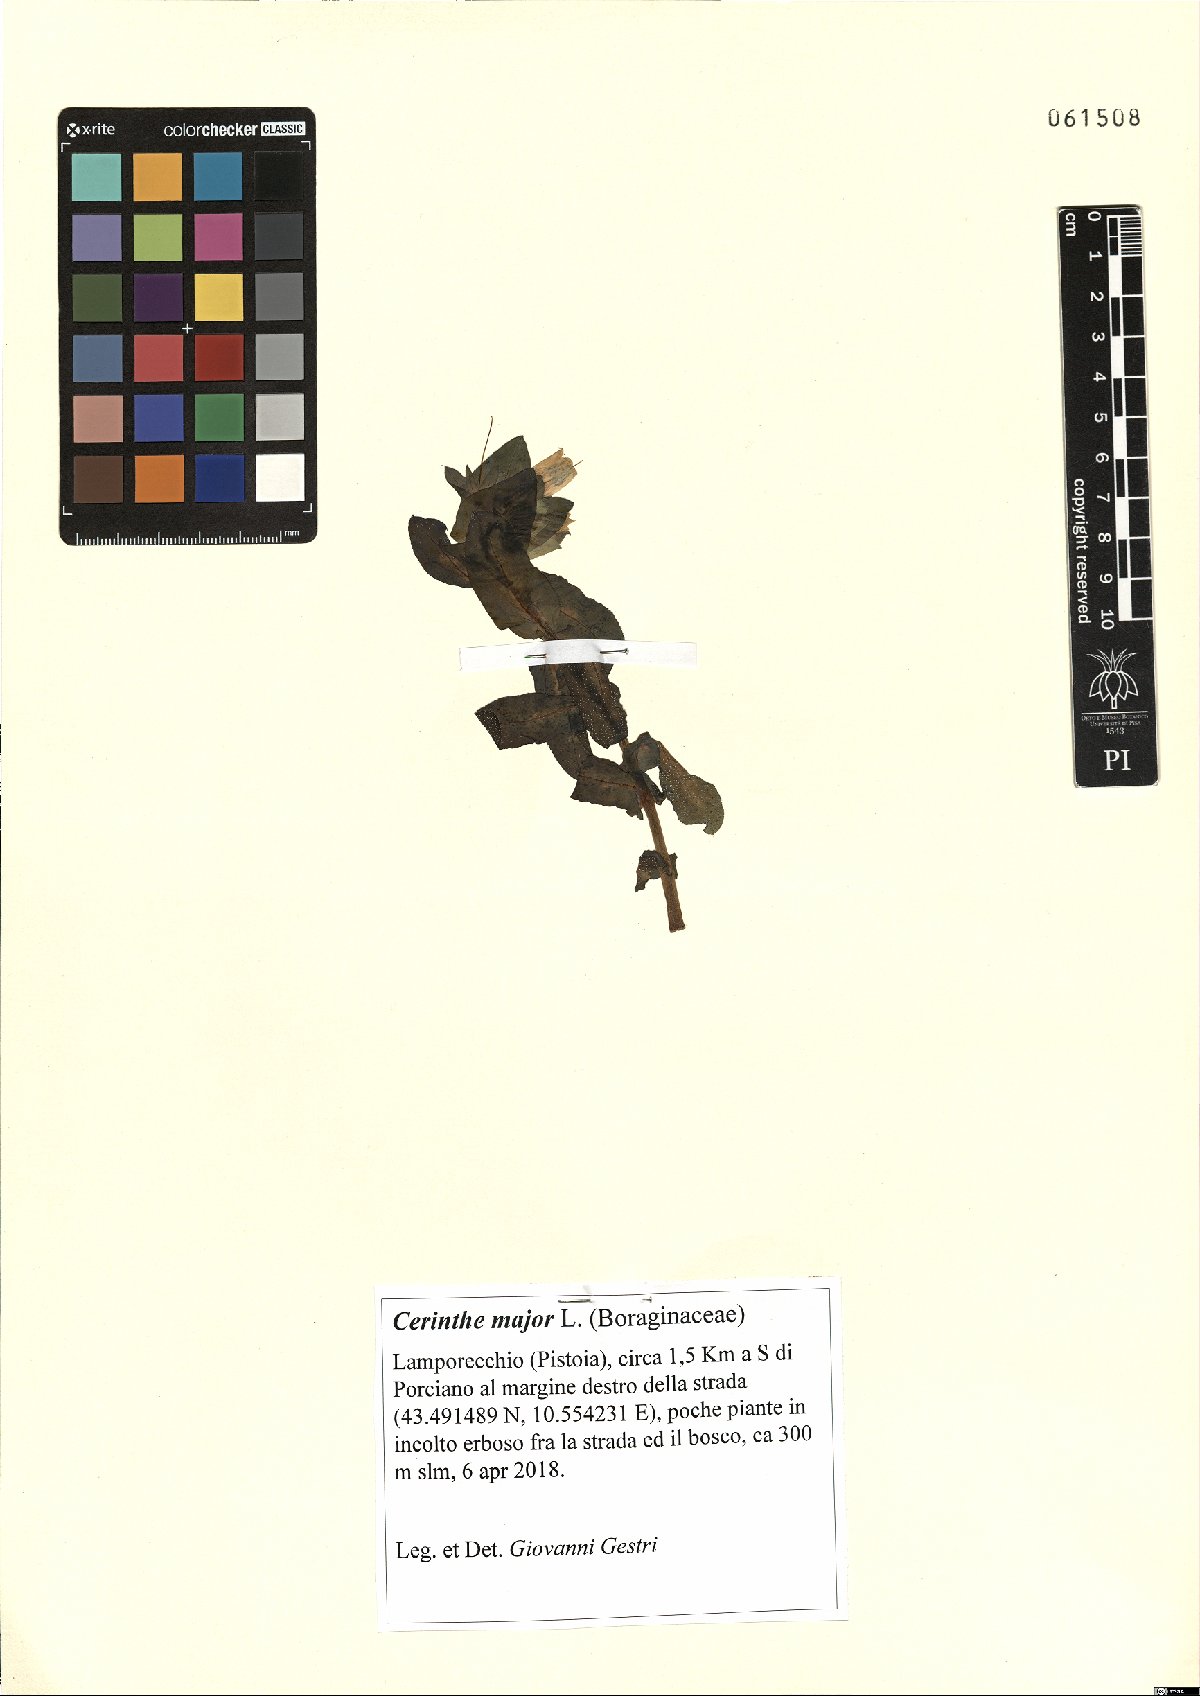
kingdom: Plantae
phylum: Tracheophyta
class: Magnoliopsida
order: Boraginales
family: Boraginaceae
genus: Cerinthe
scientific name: Cerinthe major
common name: Greater honeywort
